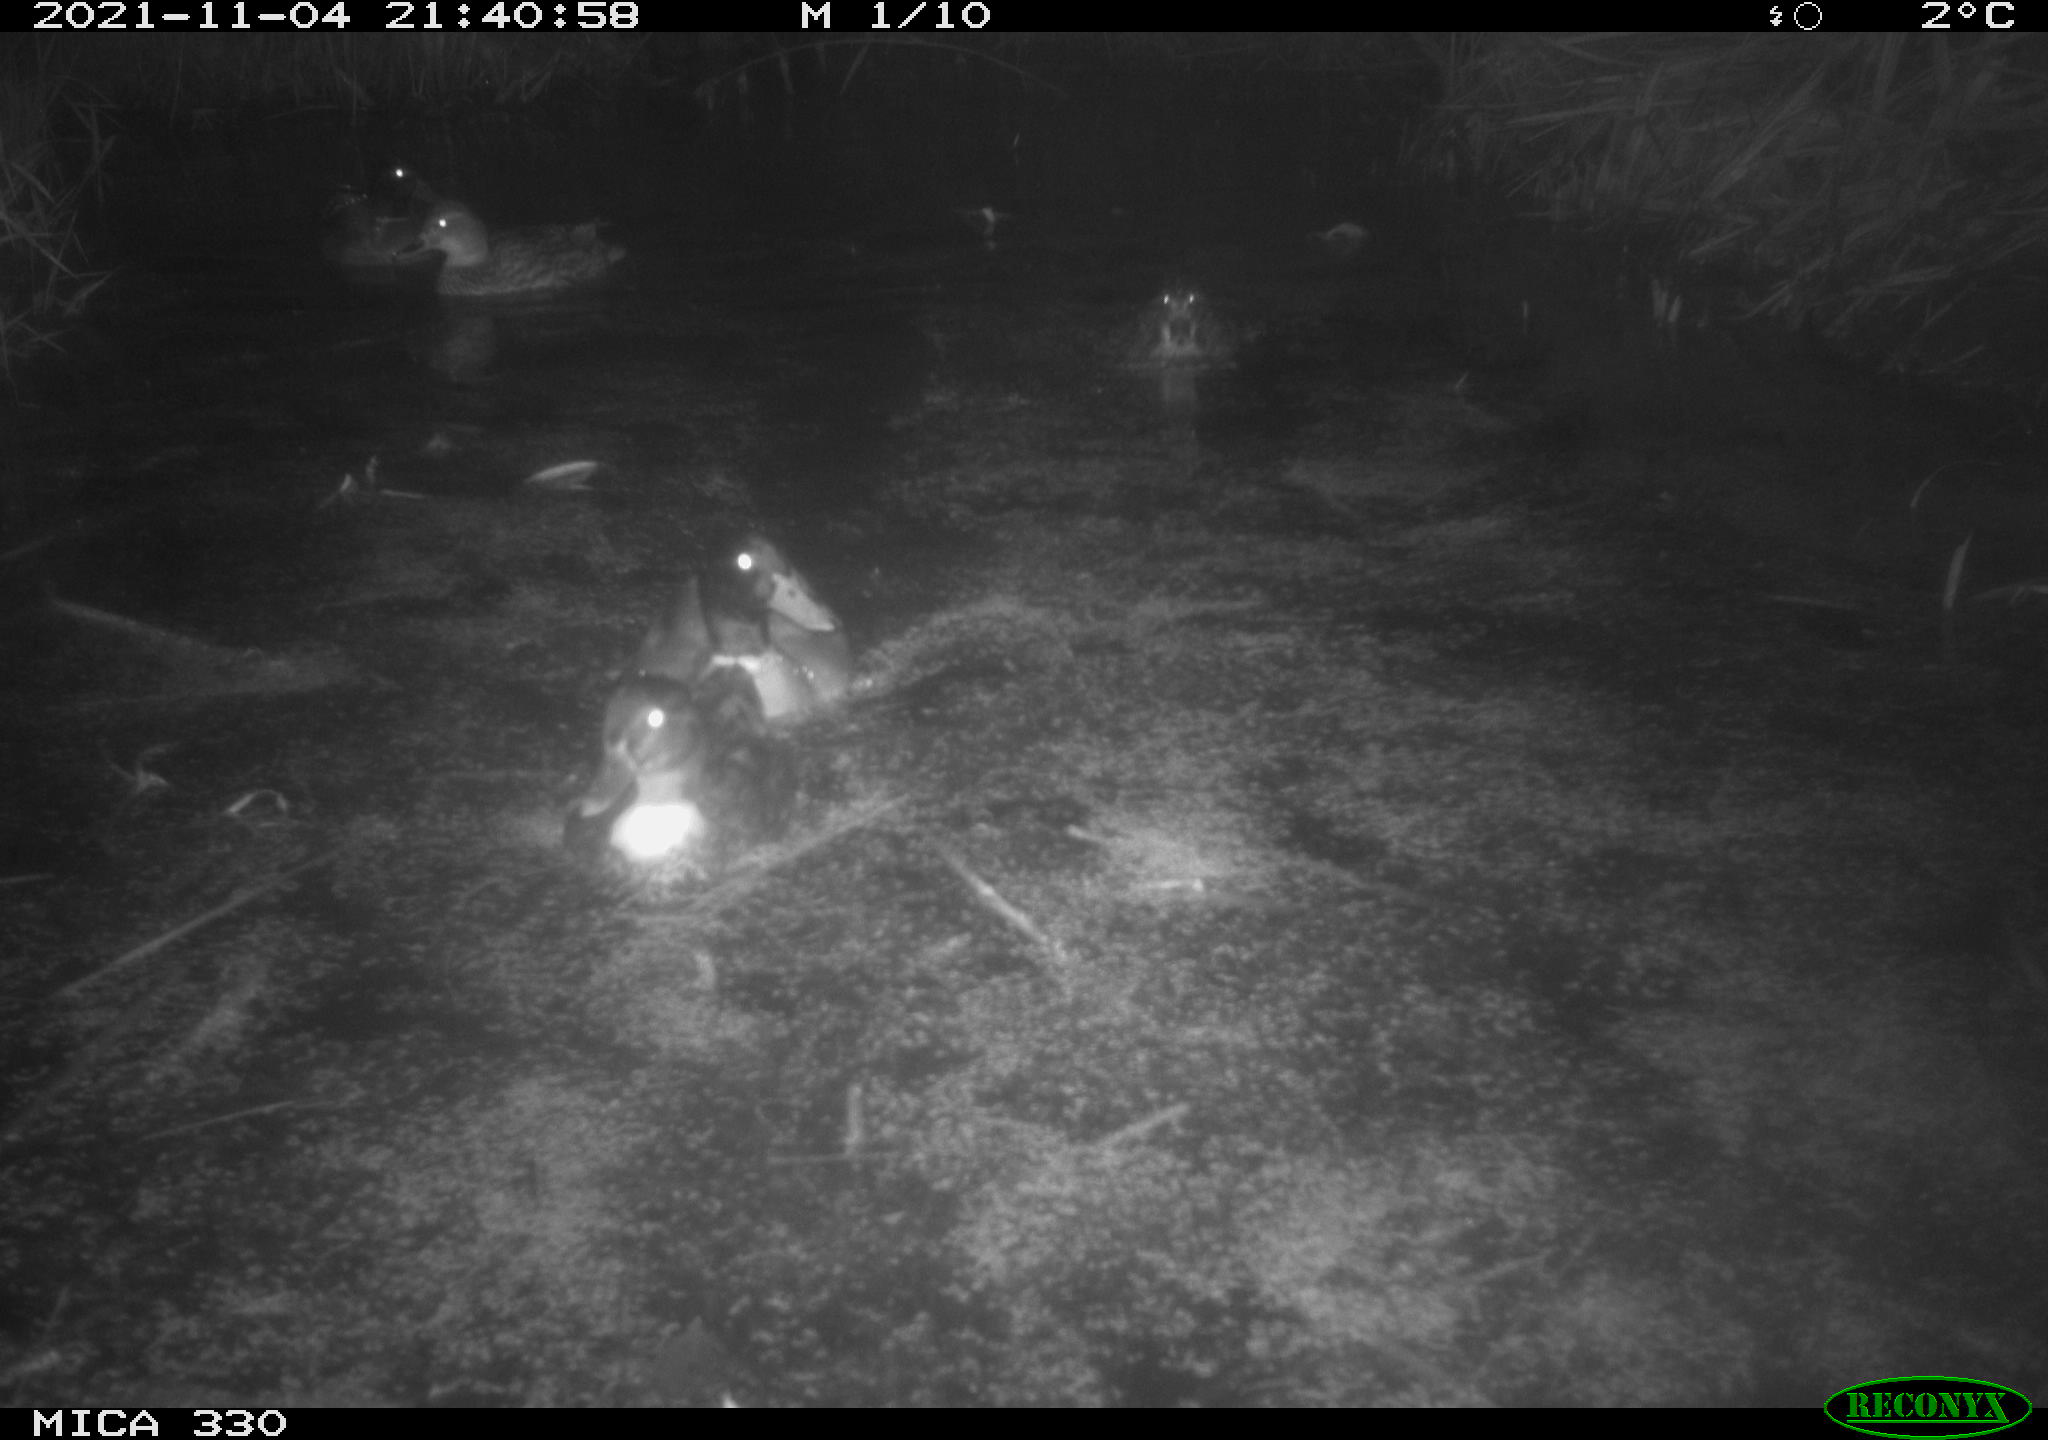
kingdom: Animalia
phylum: Chordata
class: Aves
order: Anseriformes
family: Anatidae
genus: Anas
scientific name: Anas platyrhynchos
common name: Mallard
